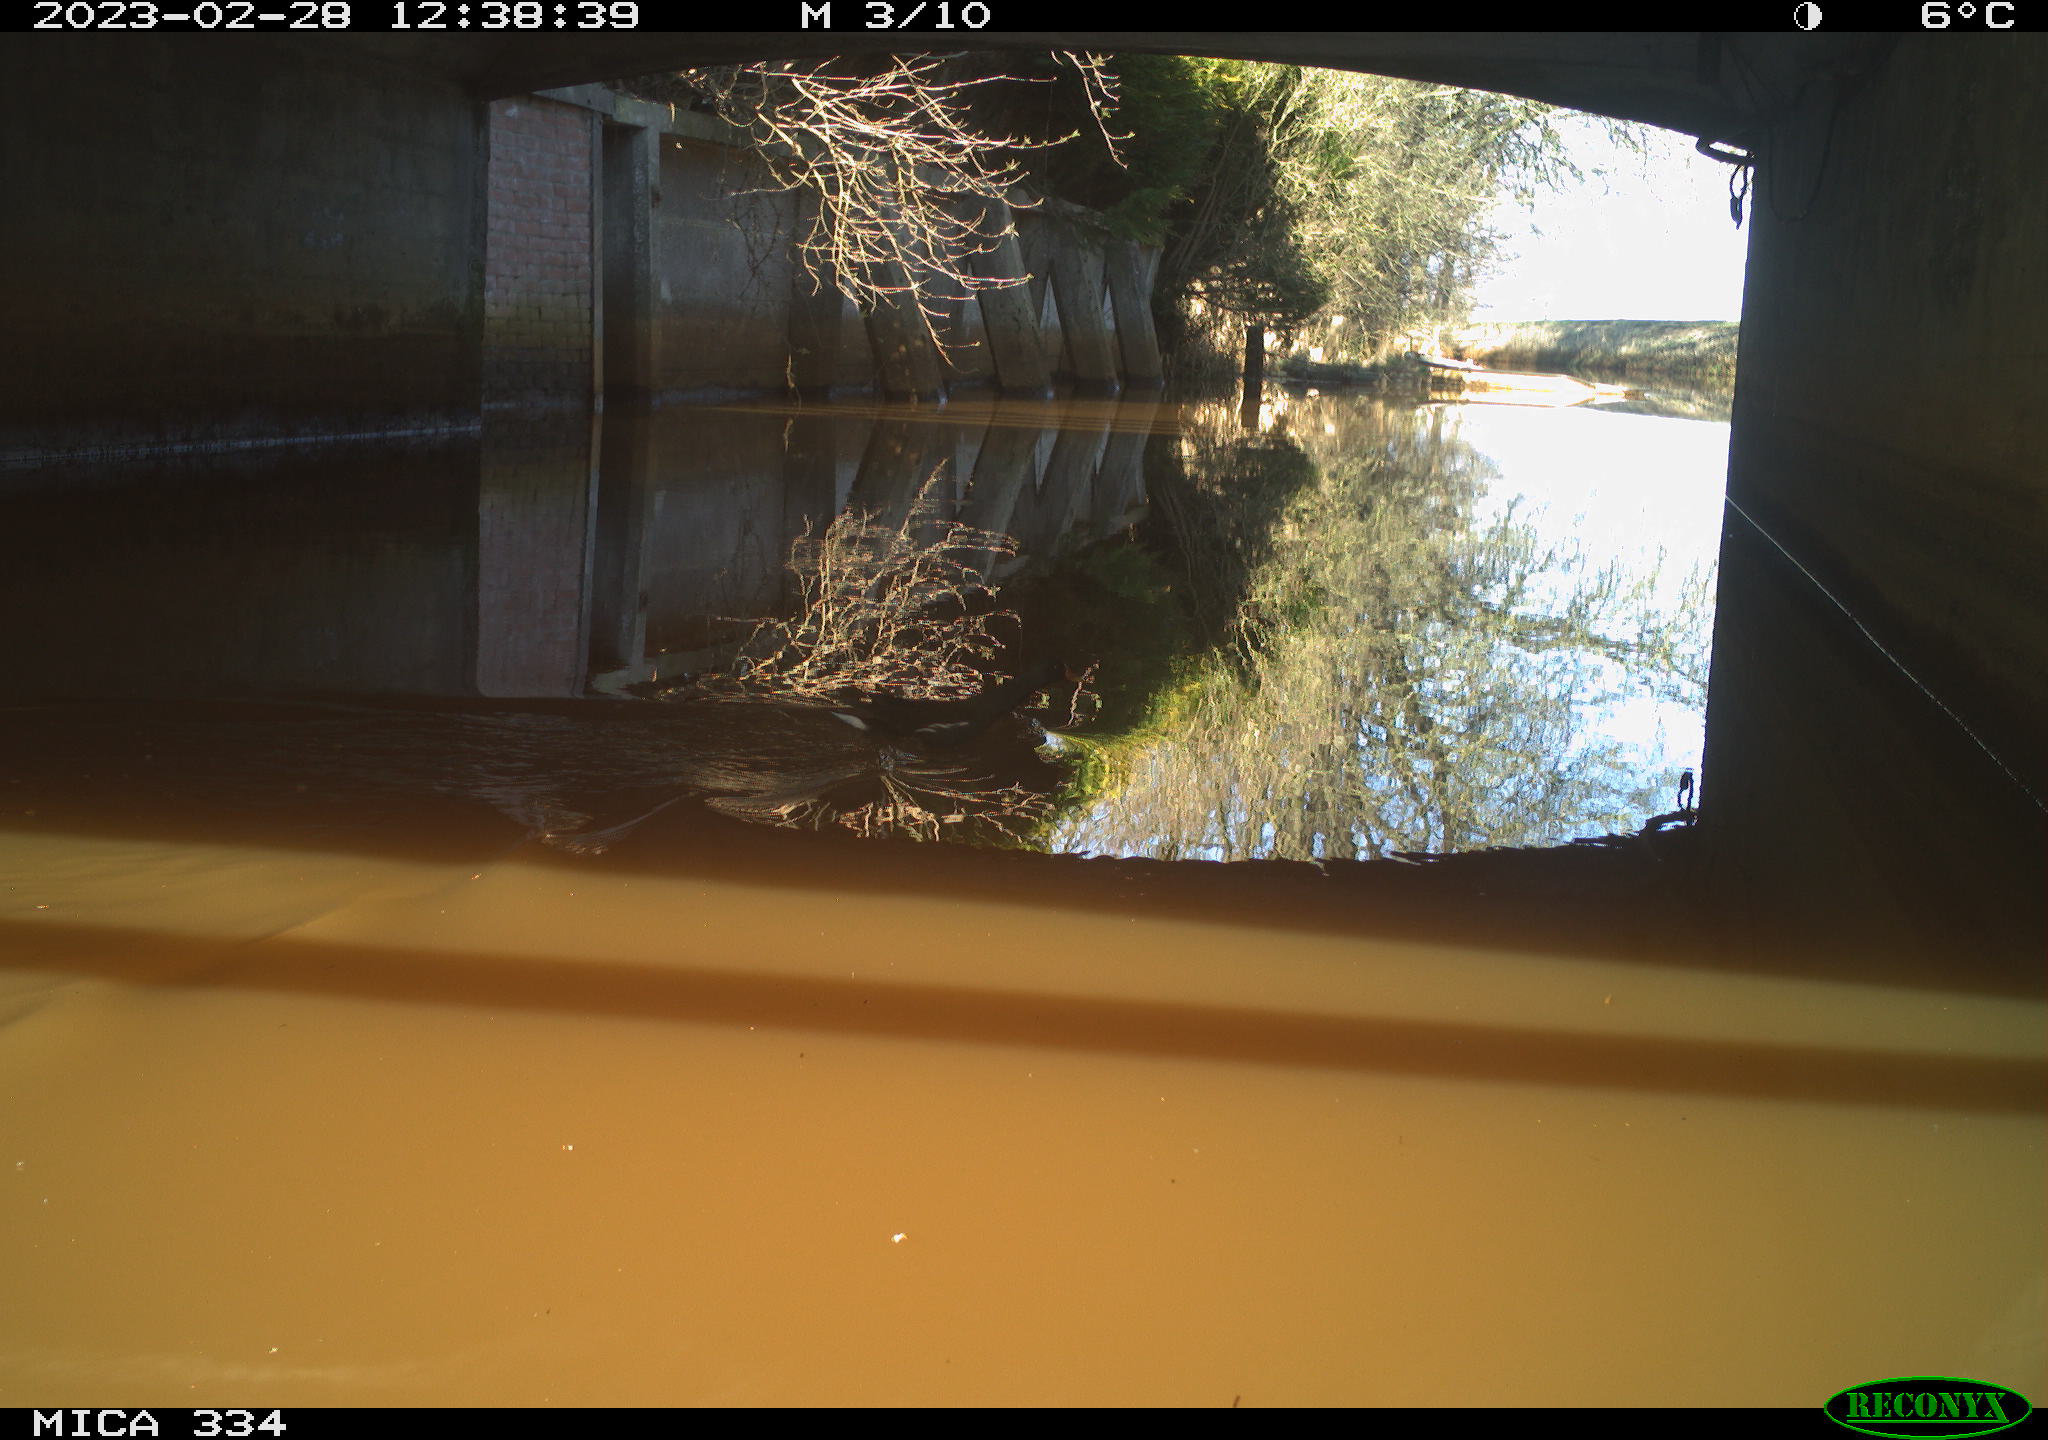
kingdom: Animalia
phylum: Chordata
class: Aves
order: Gruiformes
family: Rallidae
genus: Gallinula
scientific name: Gallinula chloropus
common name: Common moorhen
